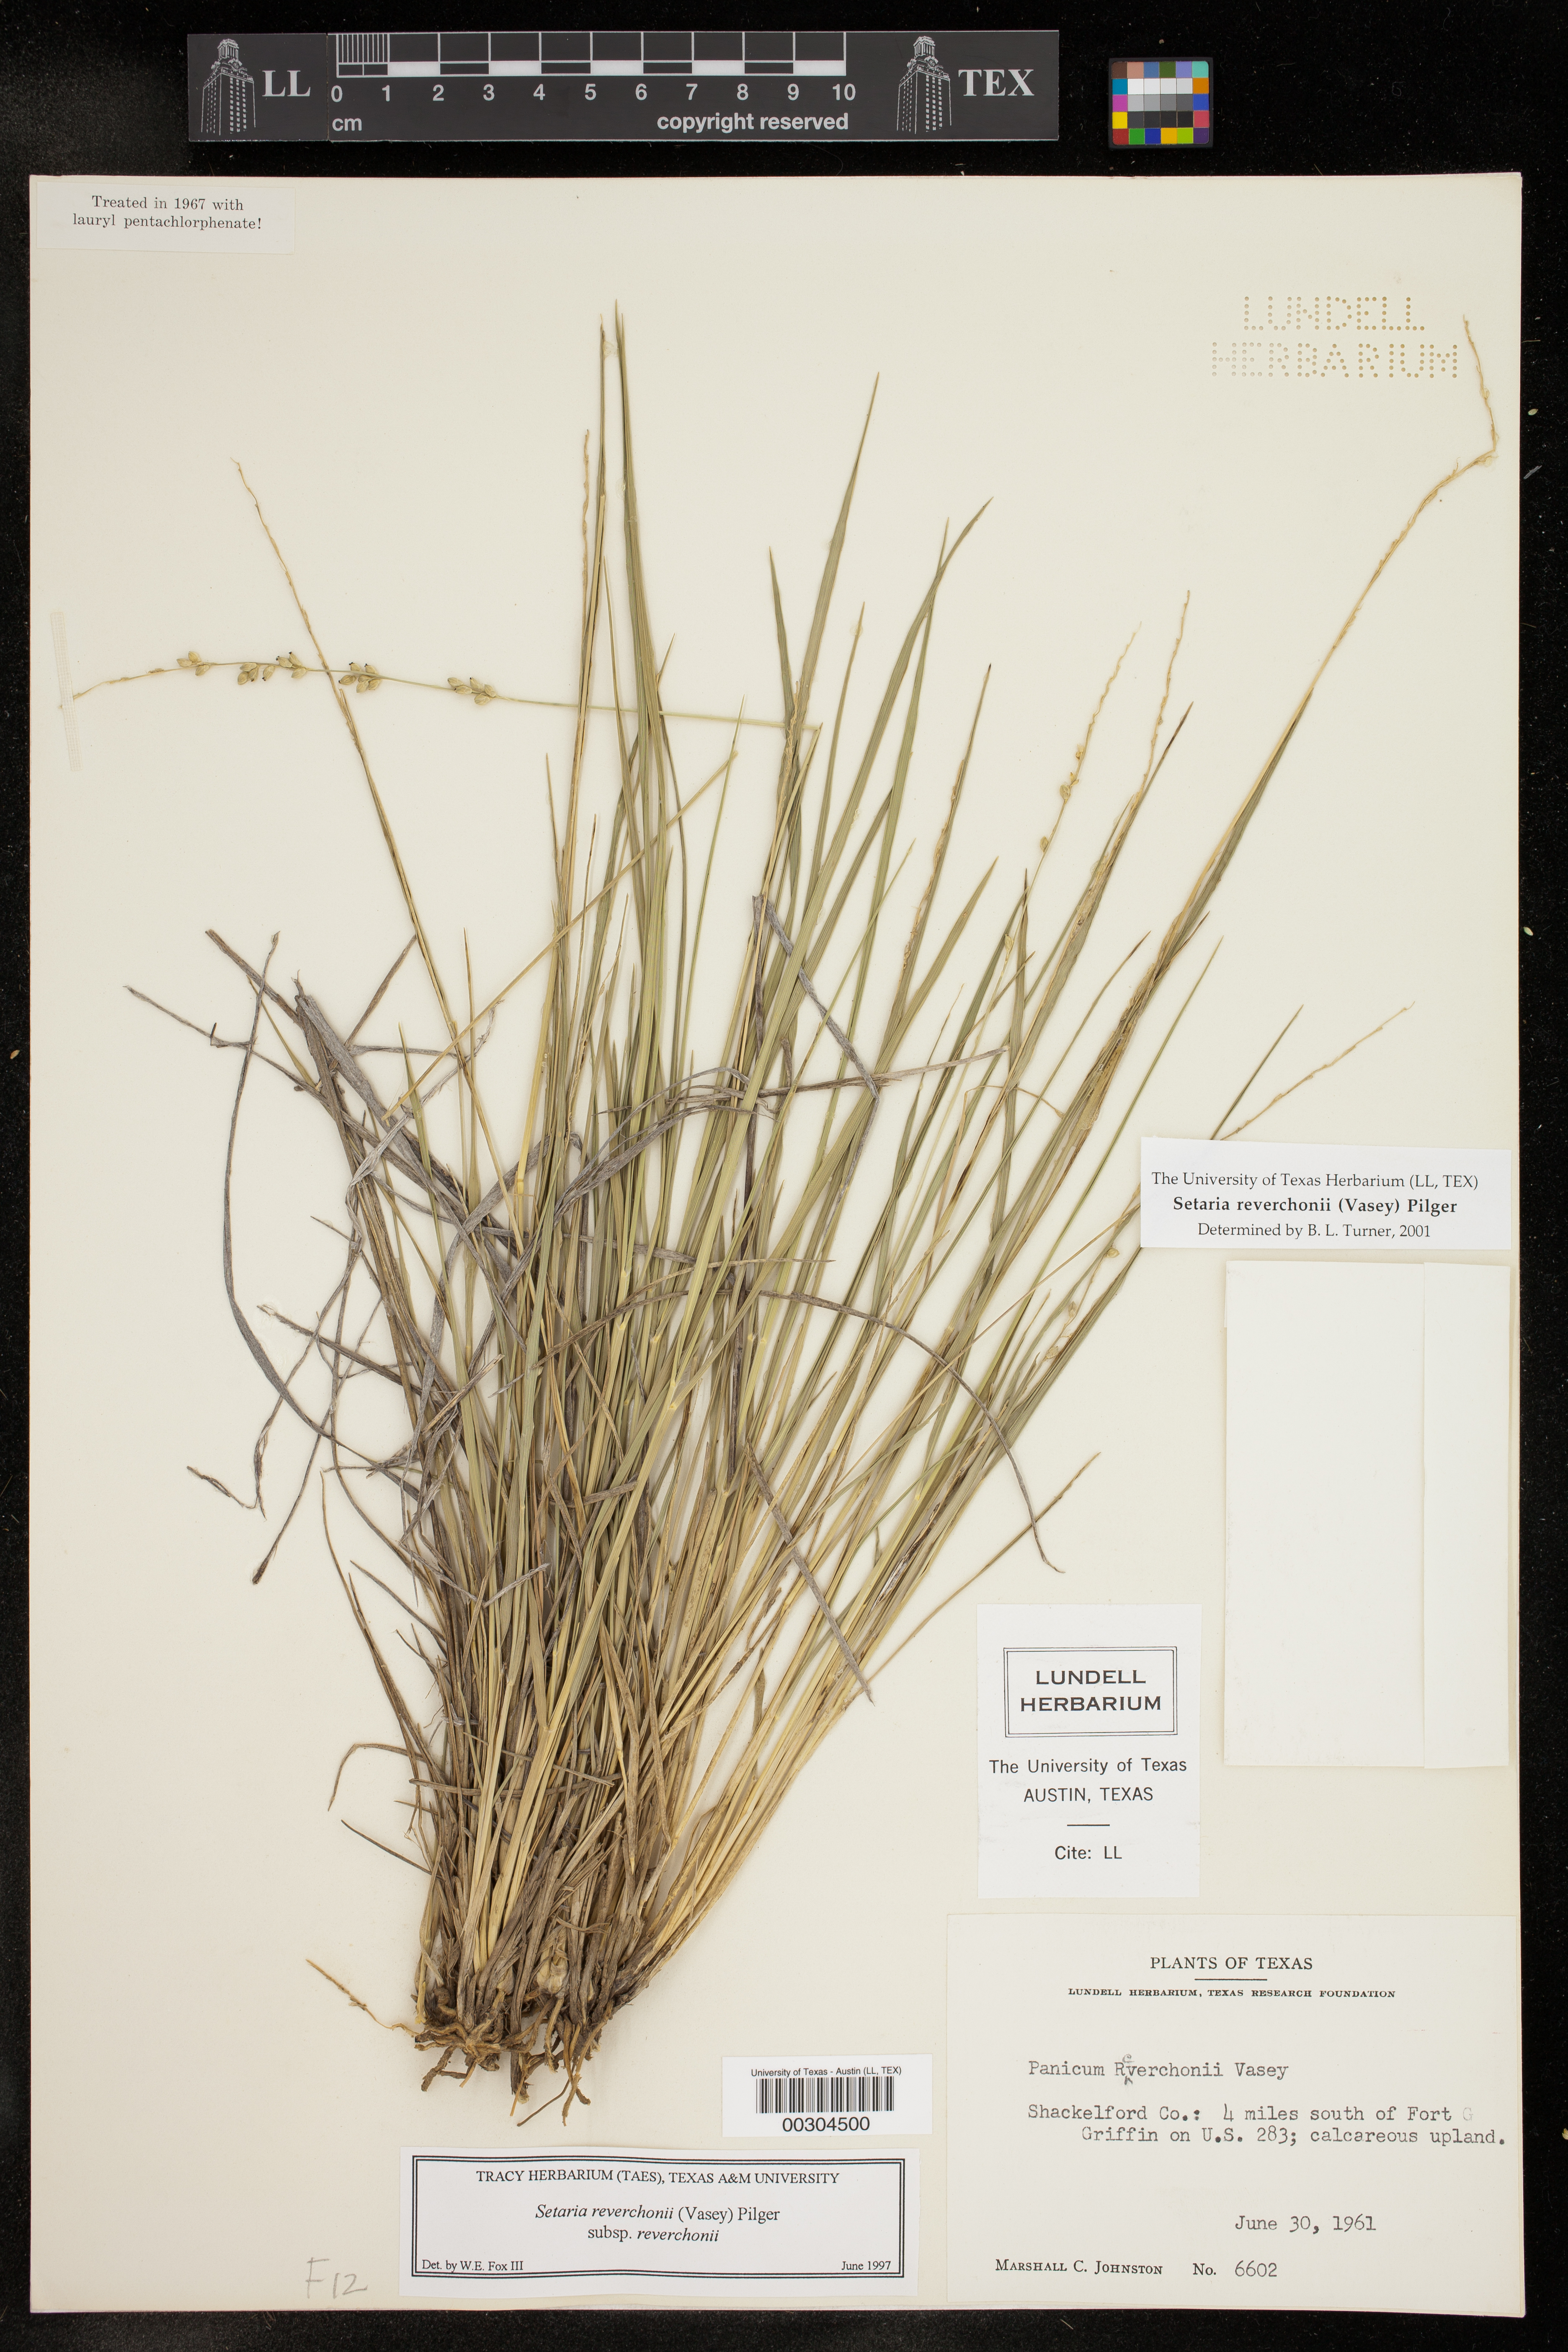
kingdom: Plantae
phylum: Tracheophyta
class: Liliopsida
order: Poales
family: Poaceae
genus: Setaria
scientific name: Setaria reverchonii
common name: Reverchon's bristle grass
